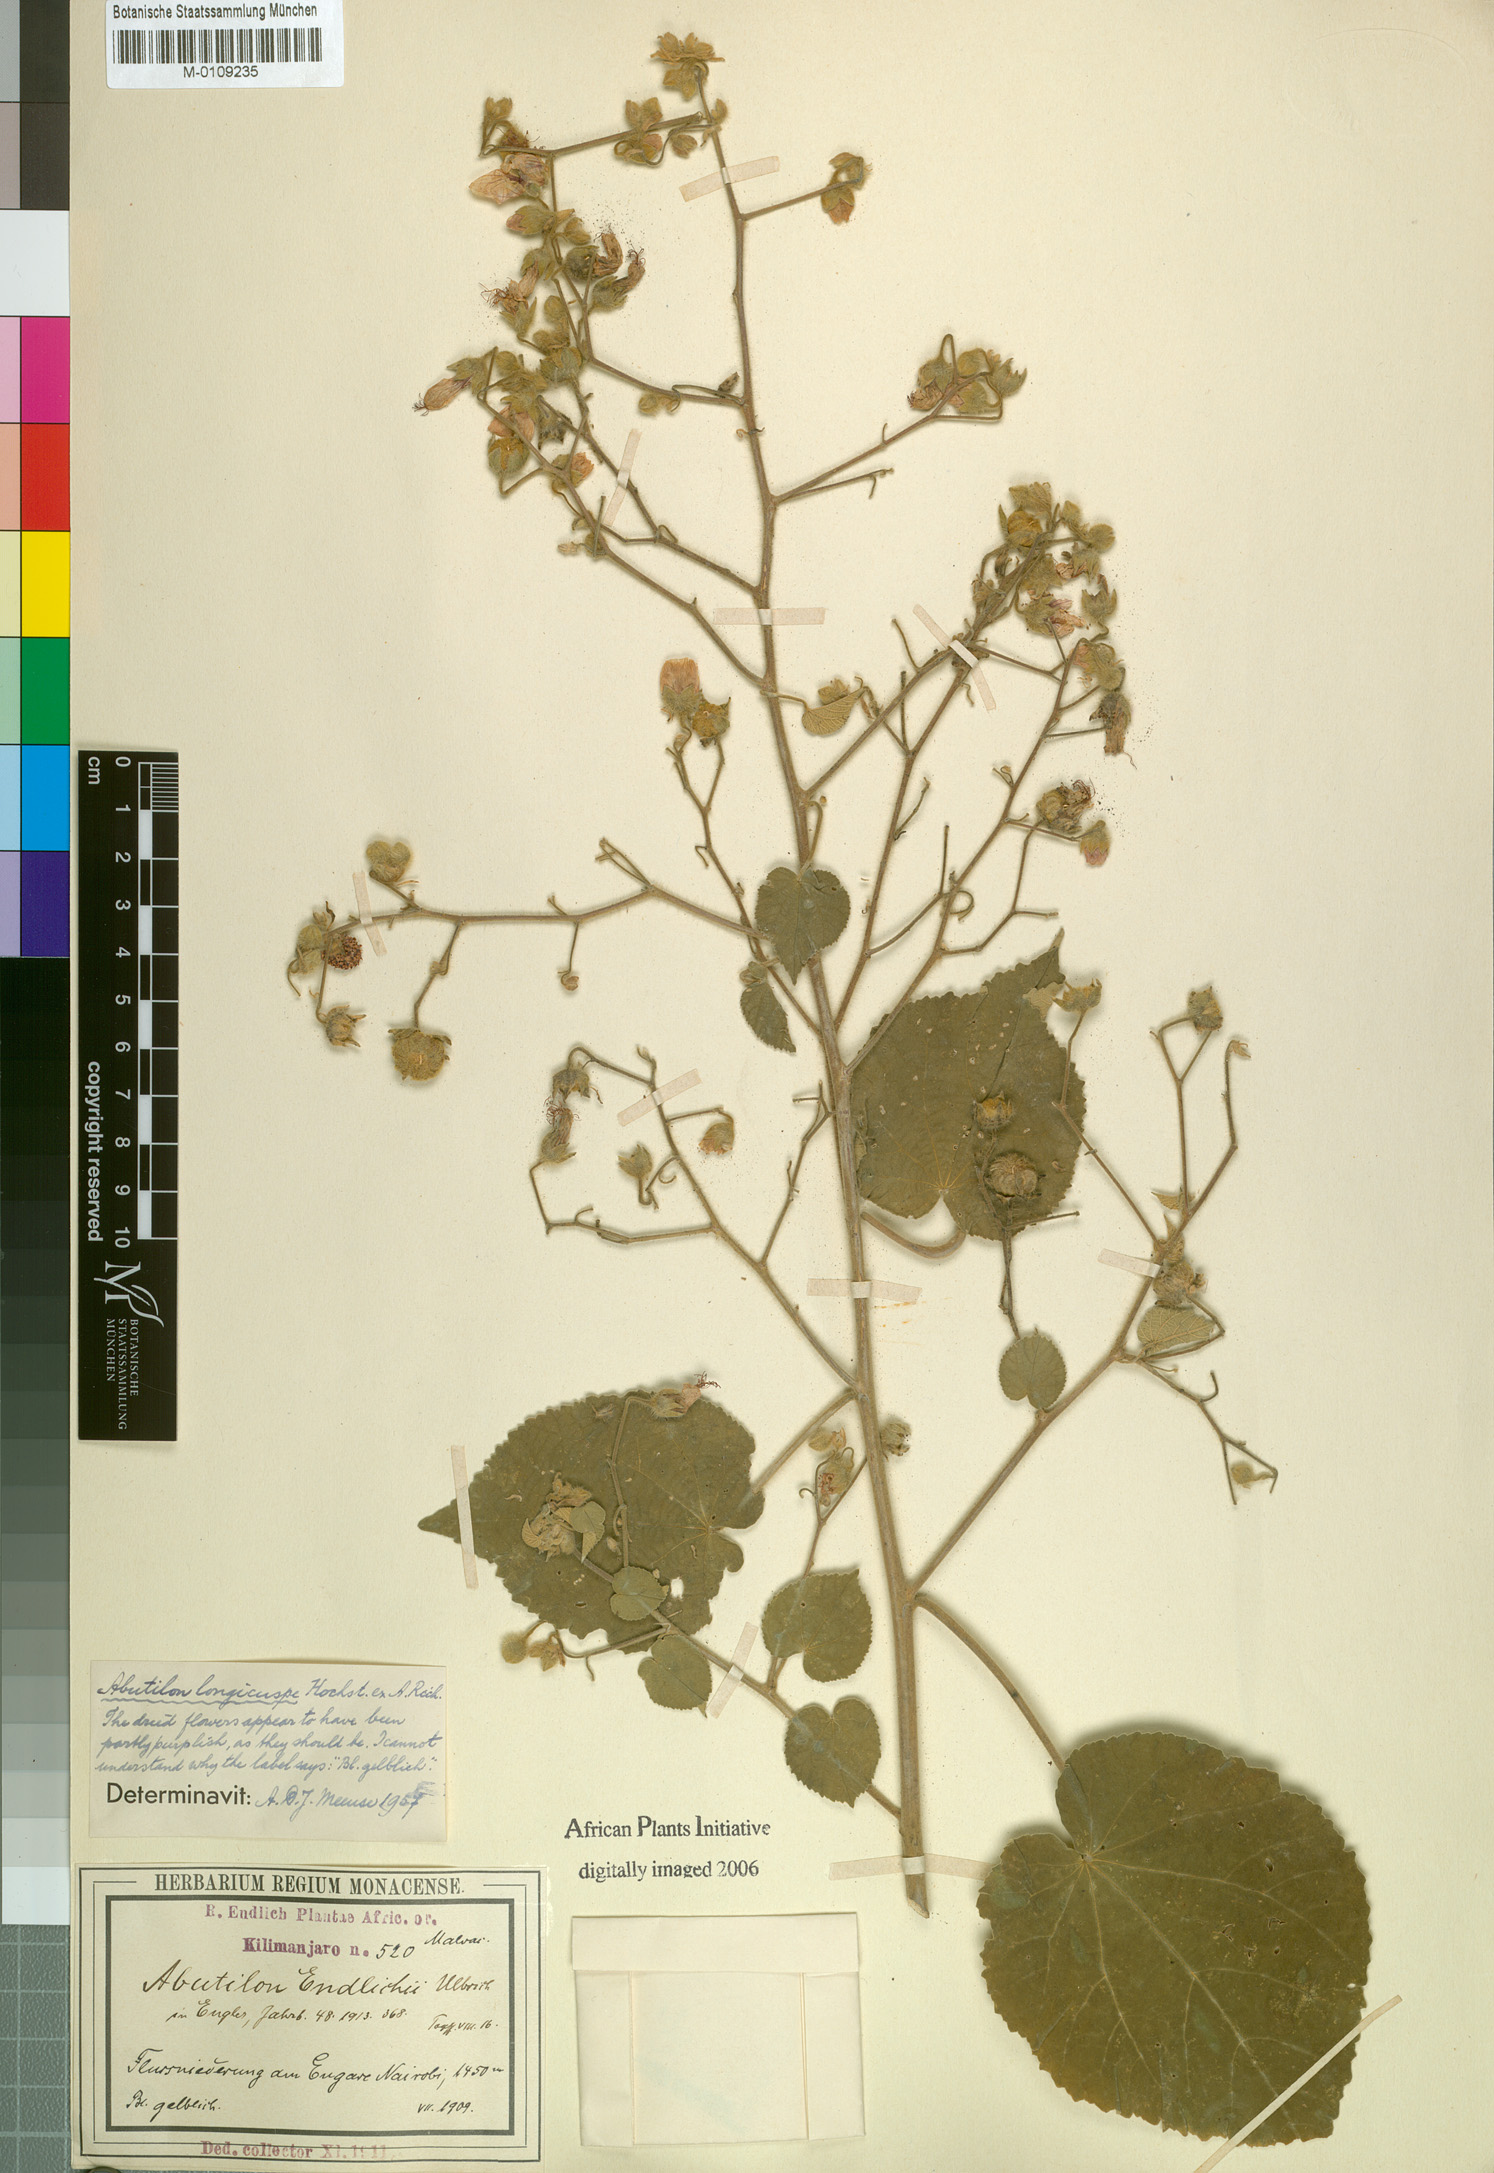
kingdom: Plantae
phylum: Tracheophyta
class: Magnoliopsida
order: Malvales
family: Malvaceae
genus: Abutilon
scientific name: Abutilon longicuspe
